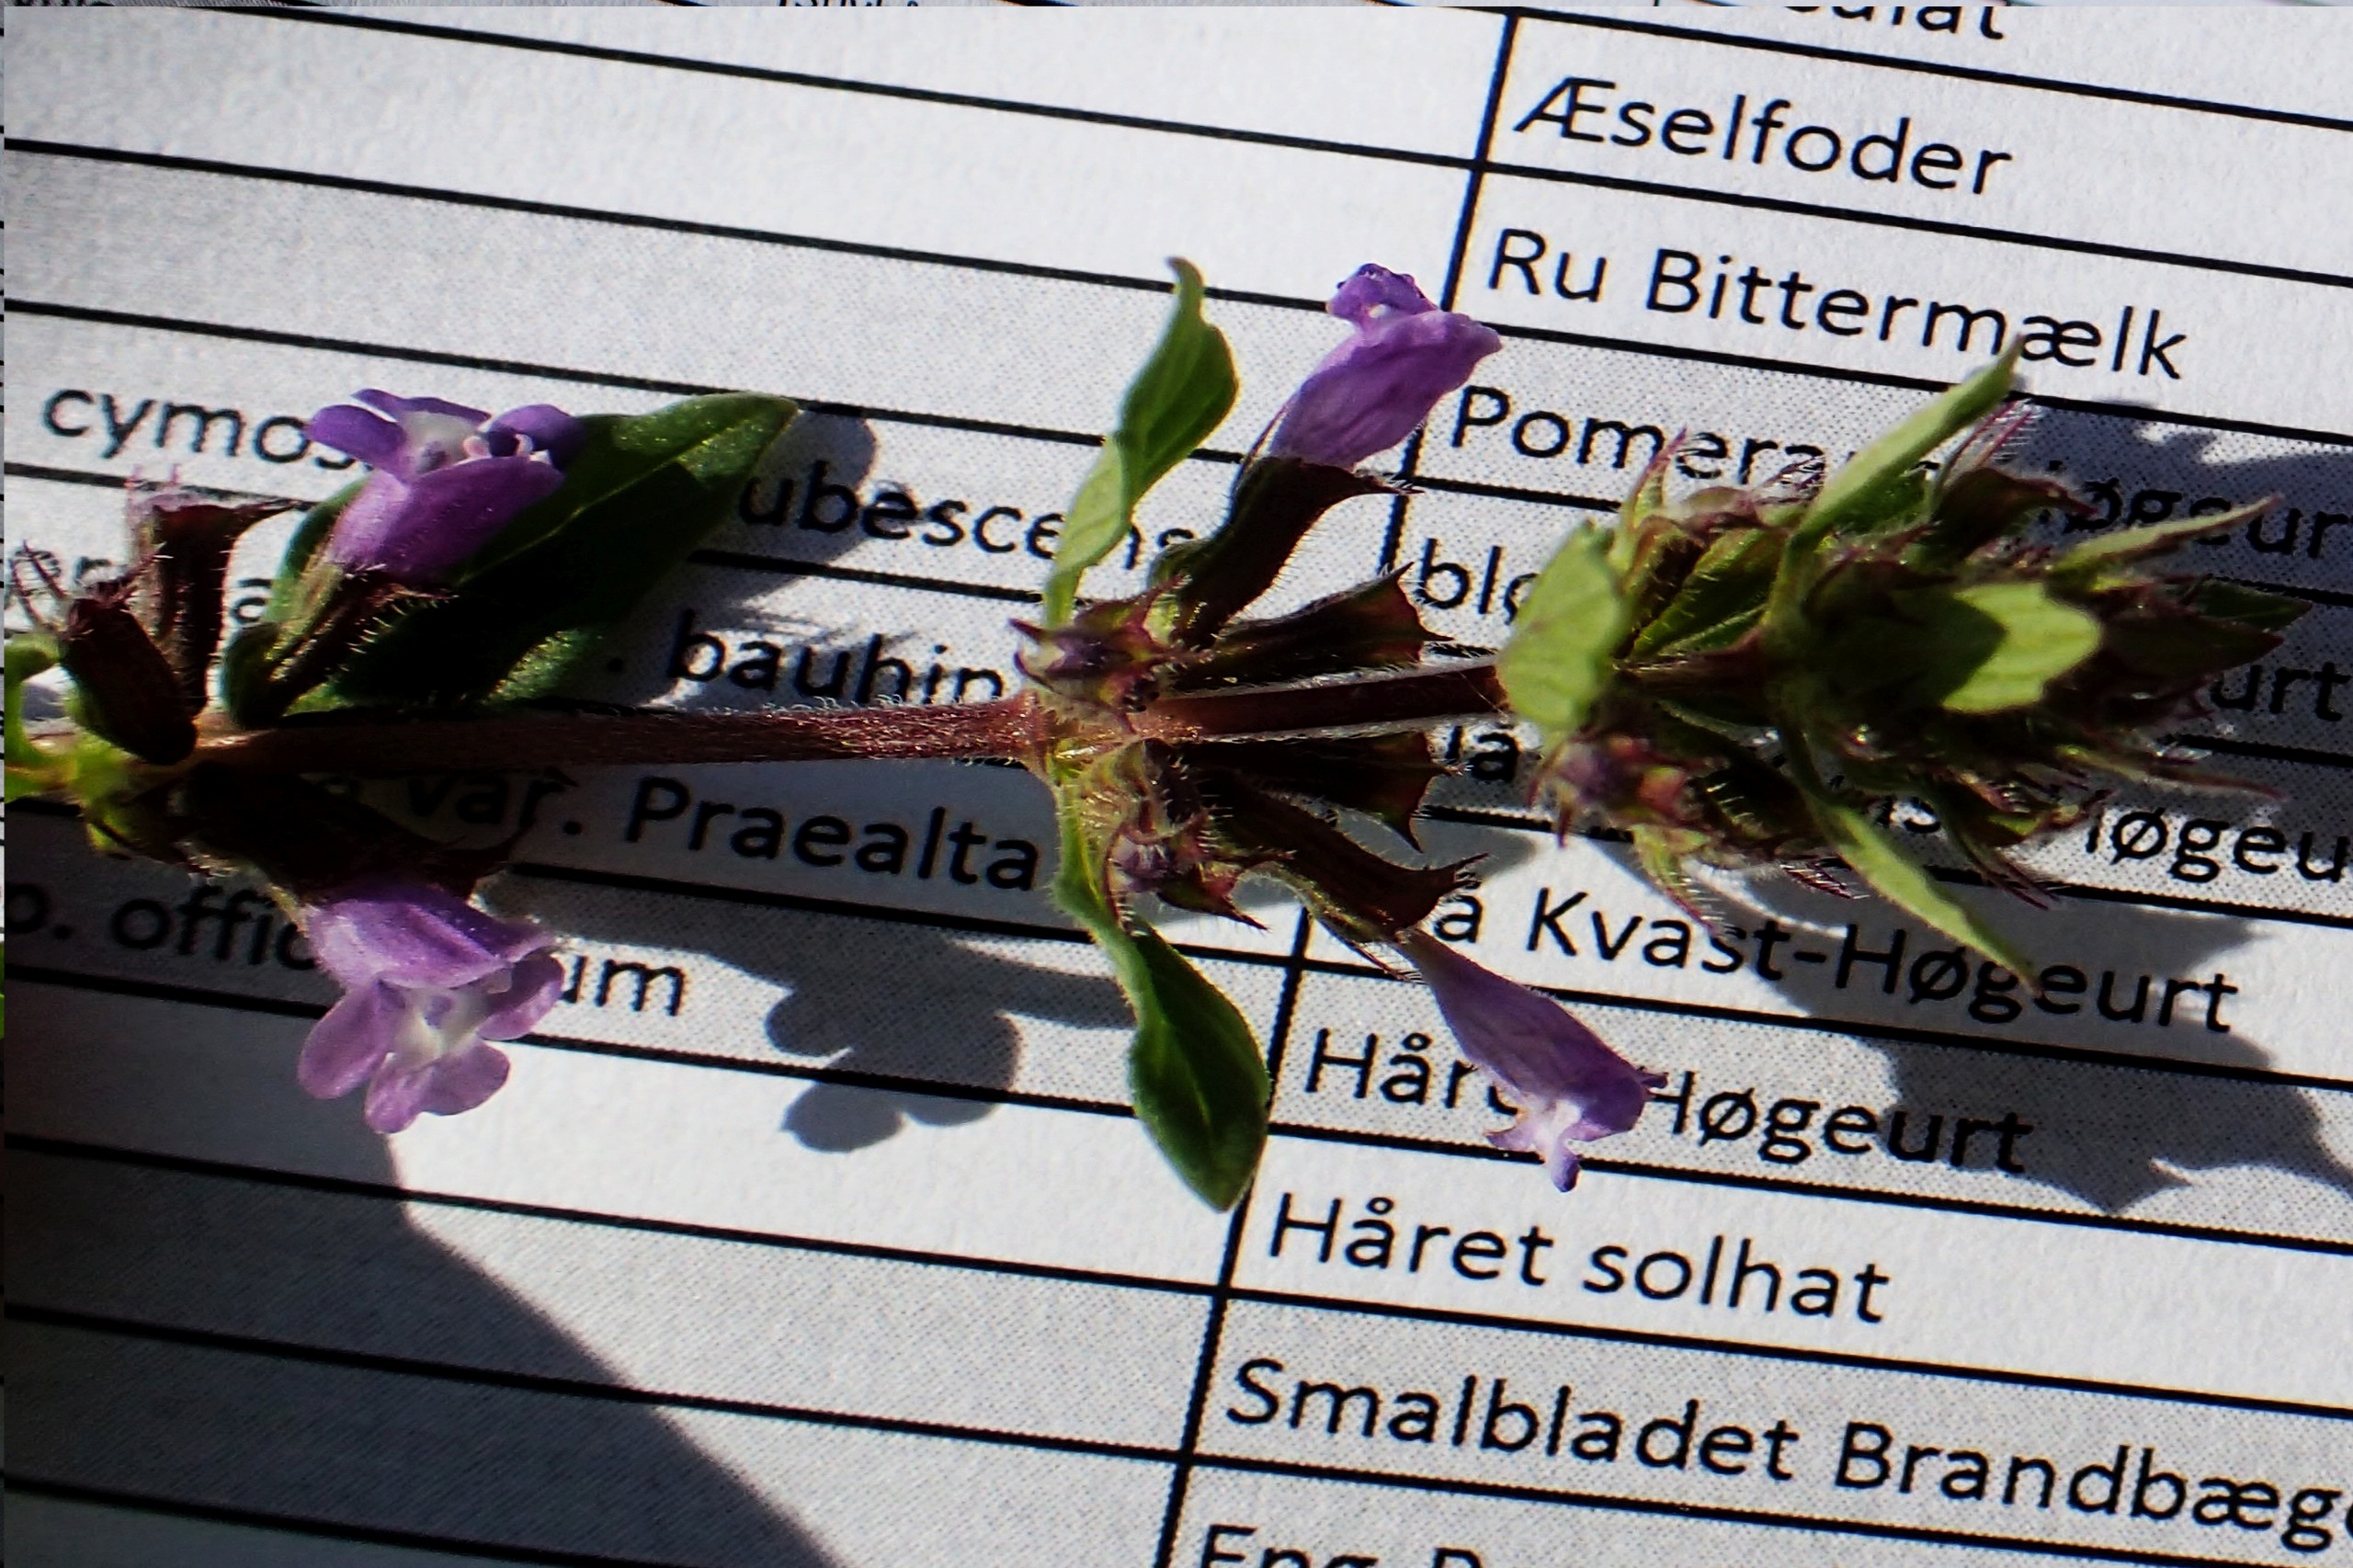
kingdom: Plantae
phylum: Tracheophyta
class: Magnoliopsida
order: Lamiales
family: Lamiaceae
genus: Clinopodium
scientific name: Clinopodium acinos
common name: Voldtimian
